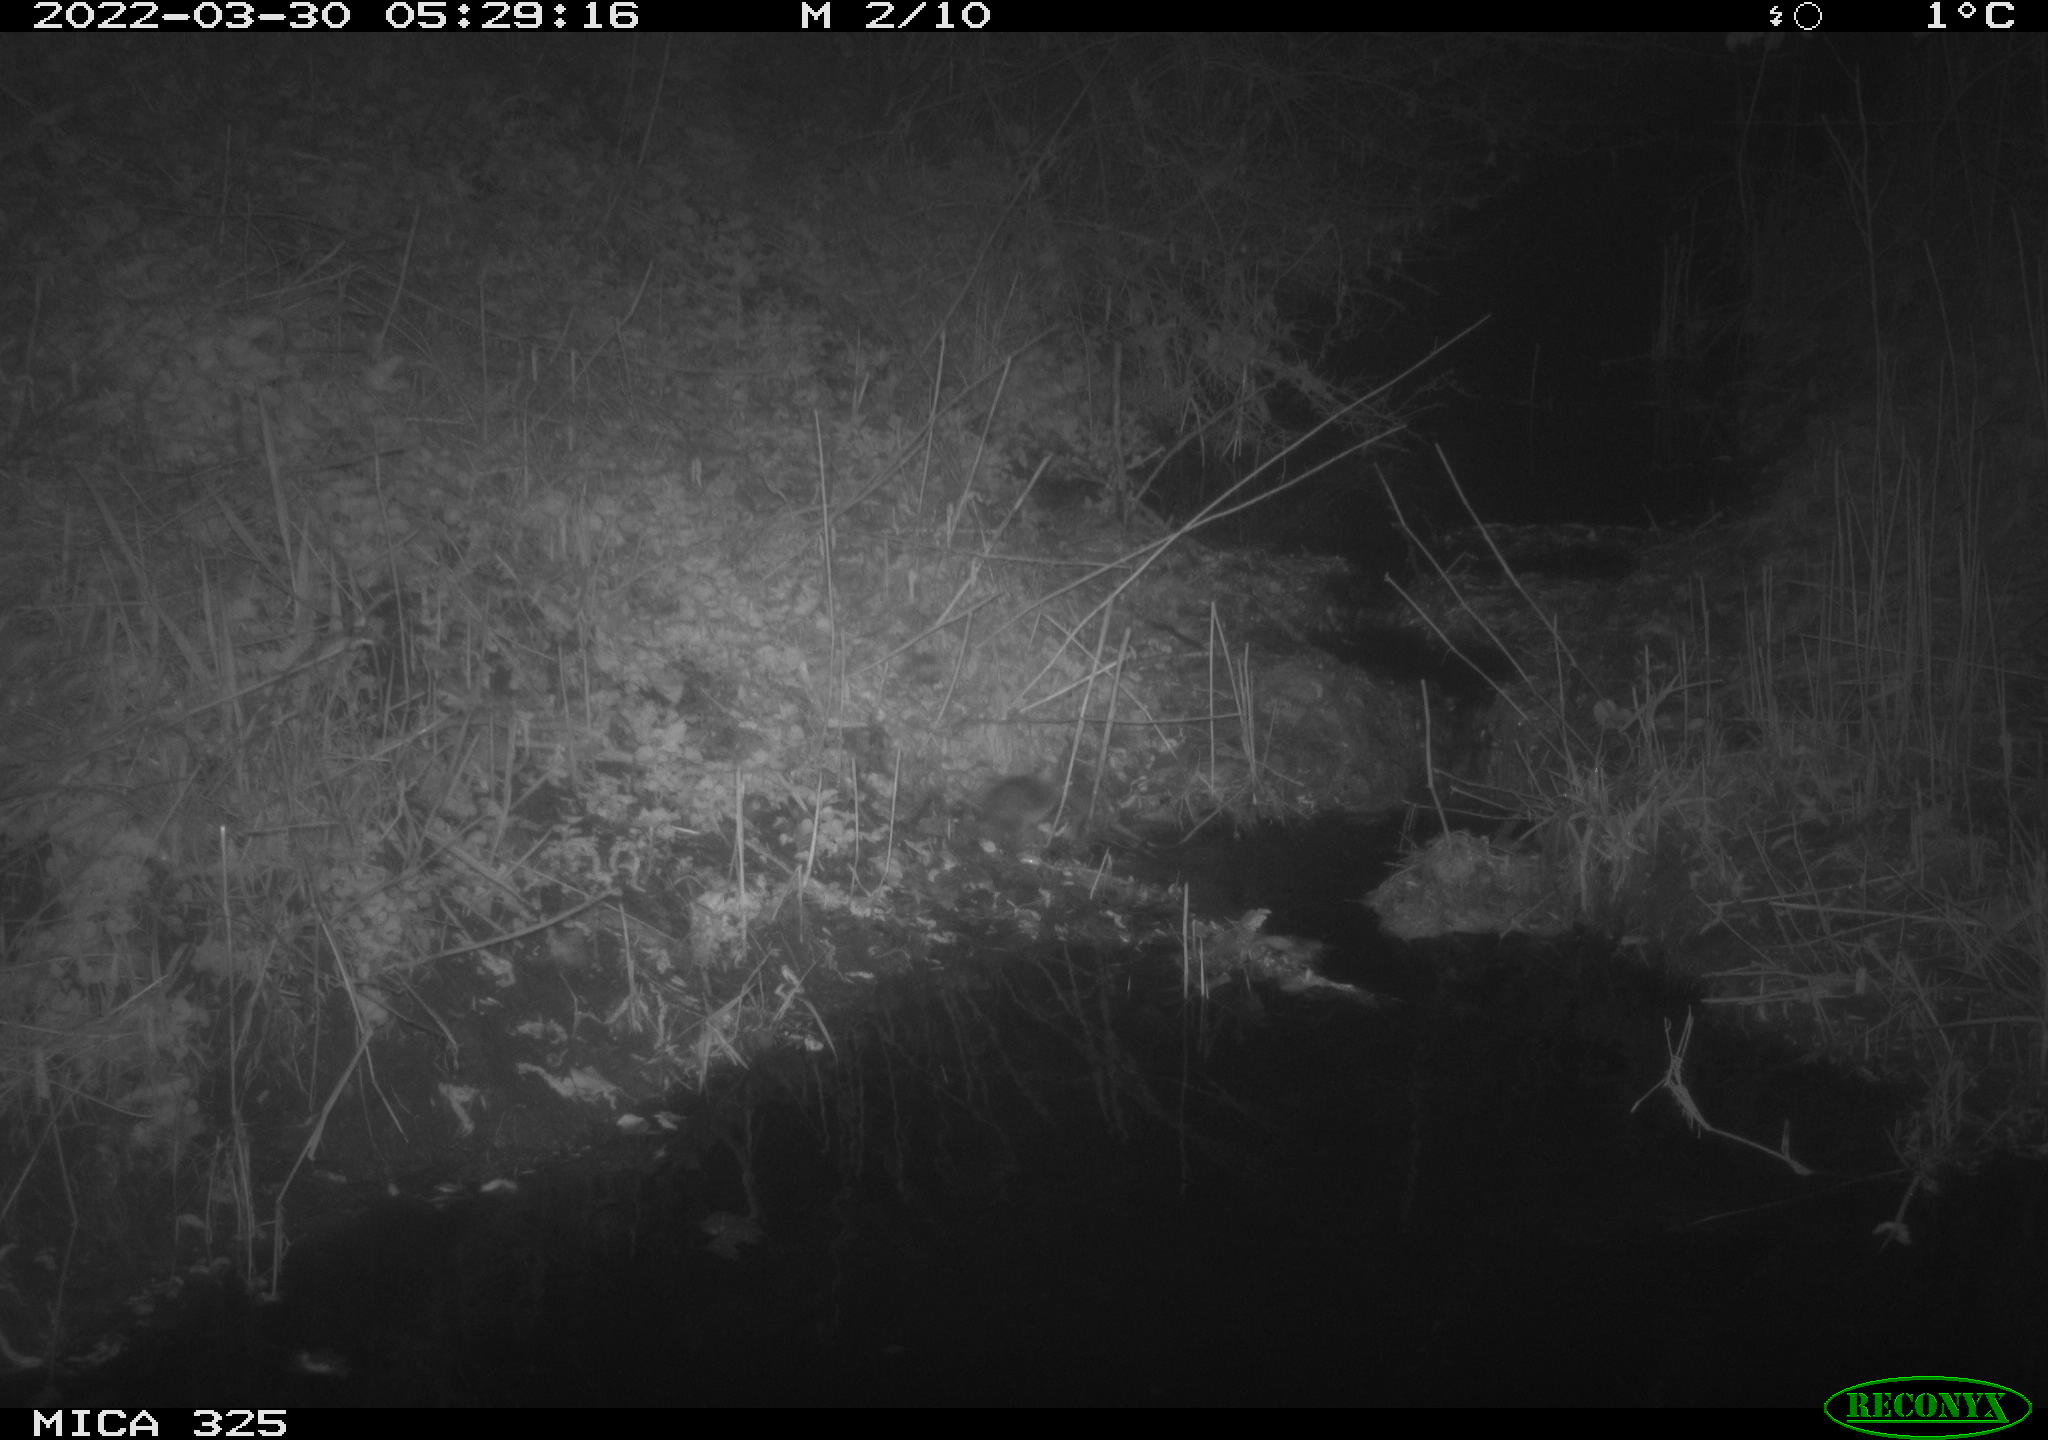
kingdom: Animalia
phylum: Chordata
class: Mammalia
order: Rodentia
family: Muridae
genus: Rattus
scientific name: Rattus norvegicus
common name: Brown rat
